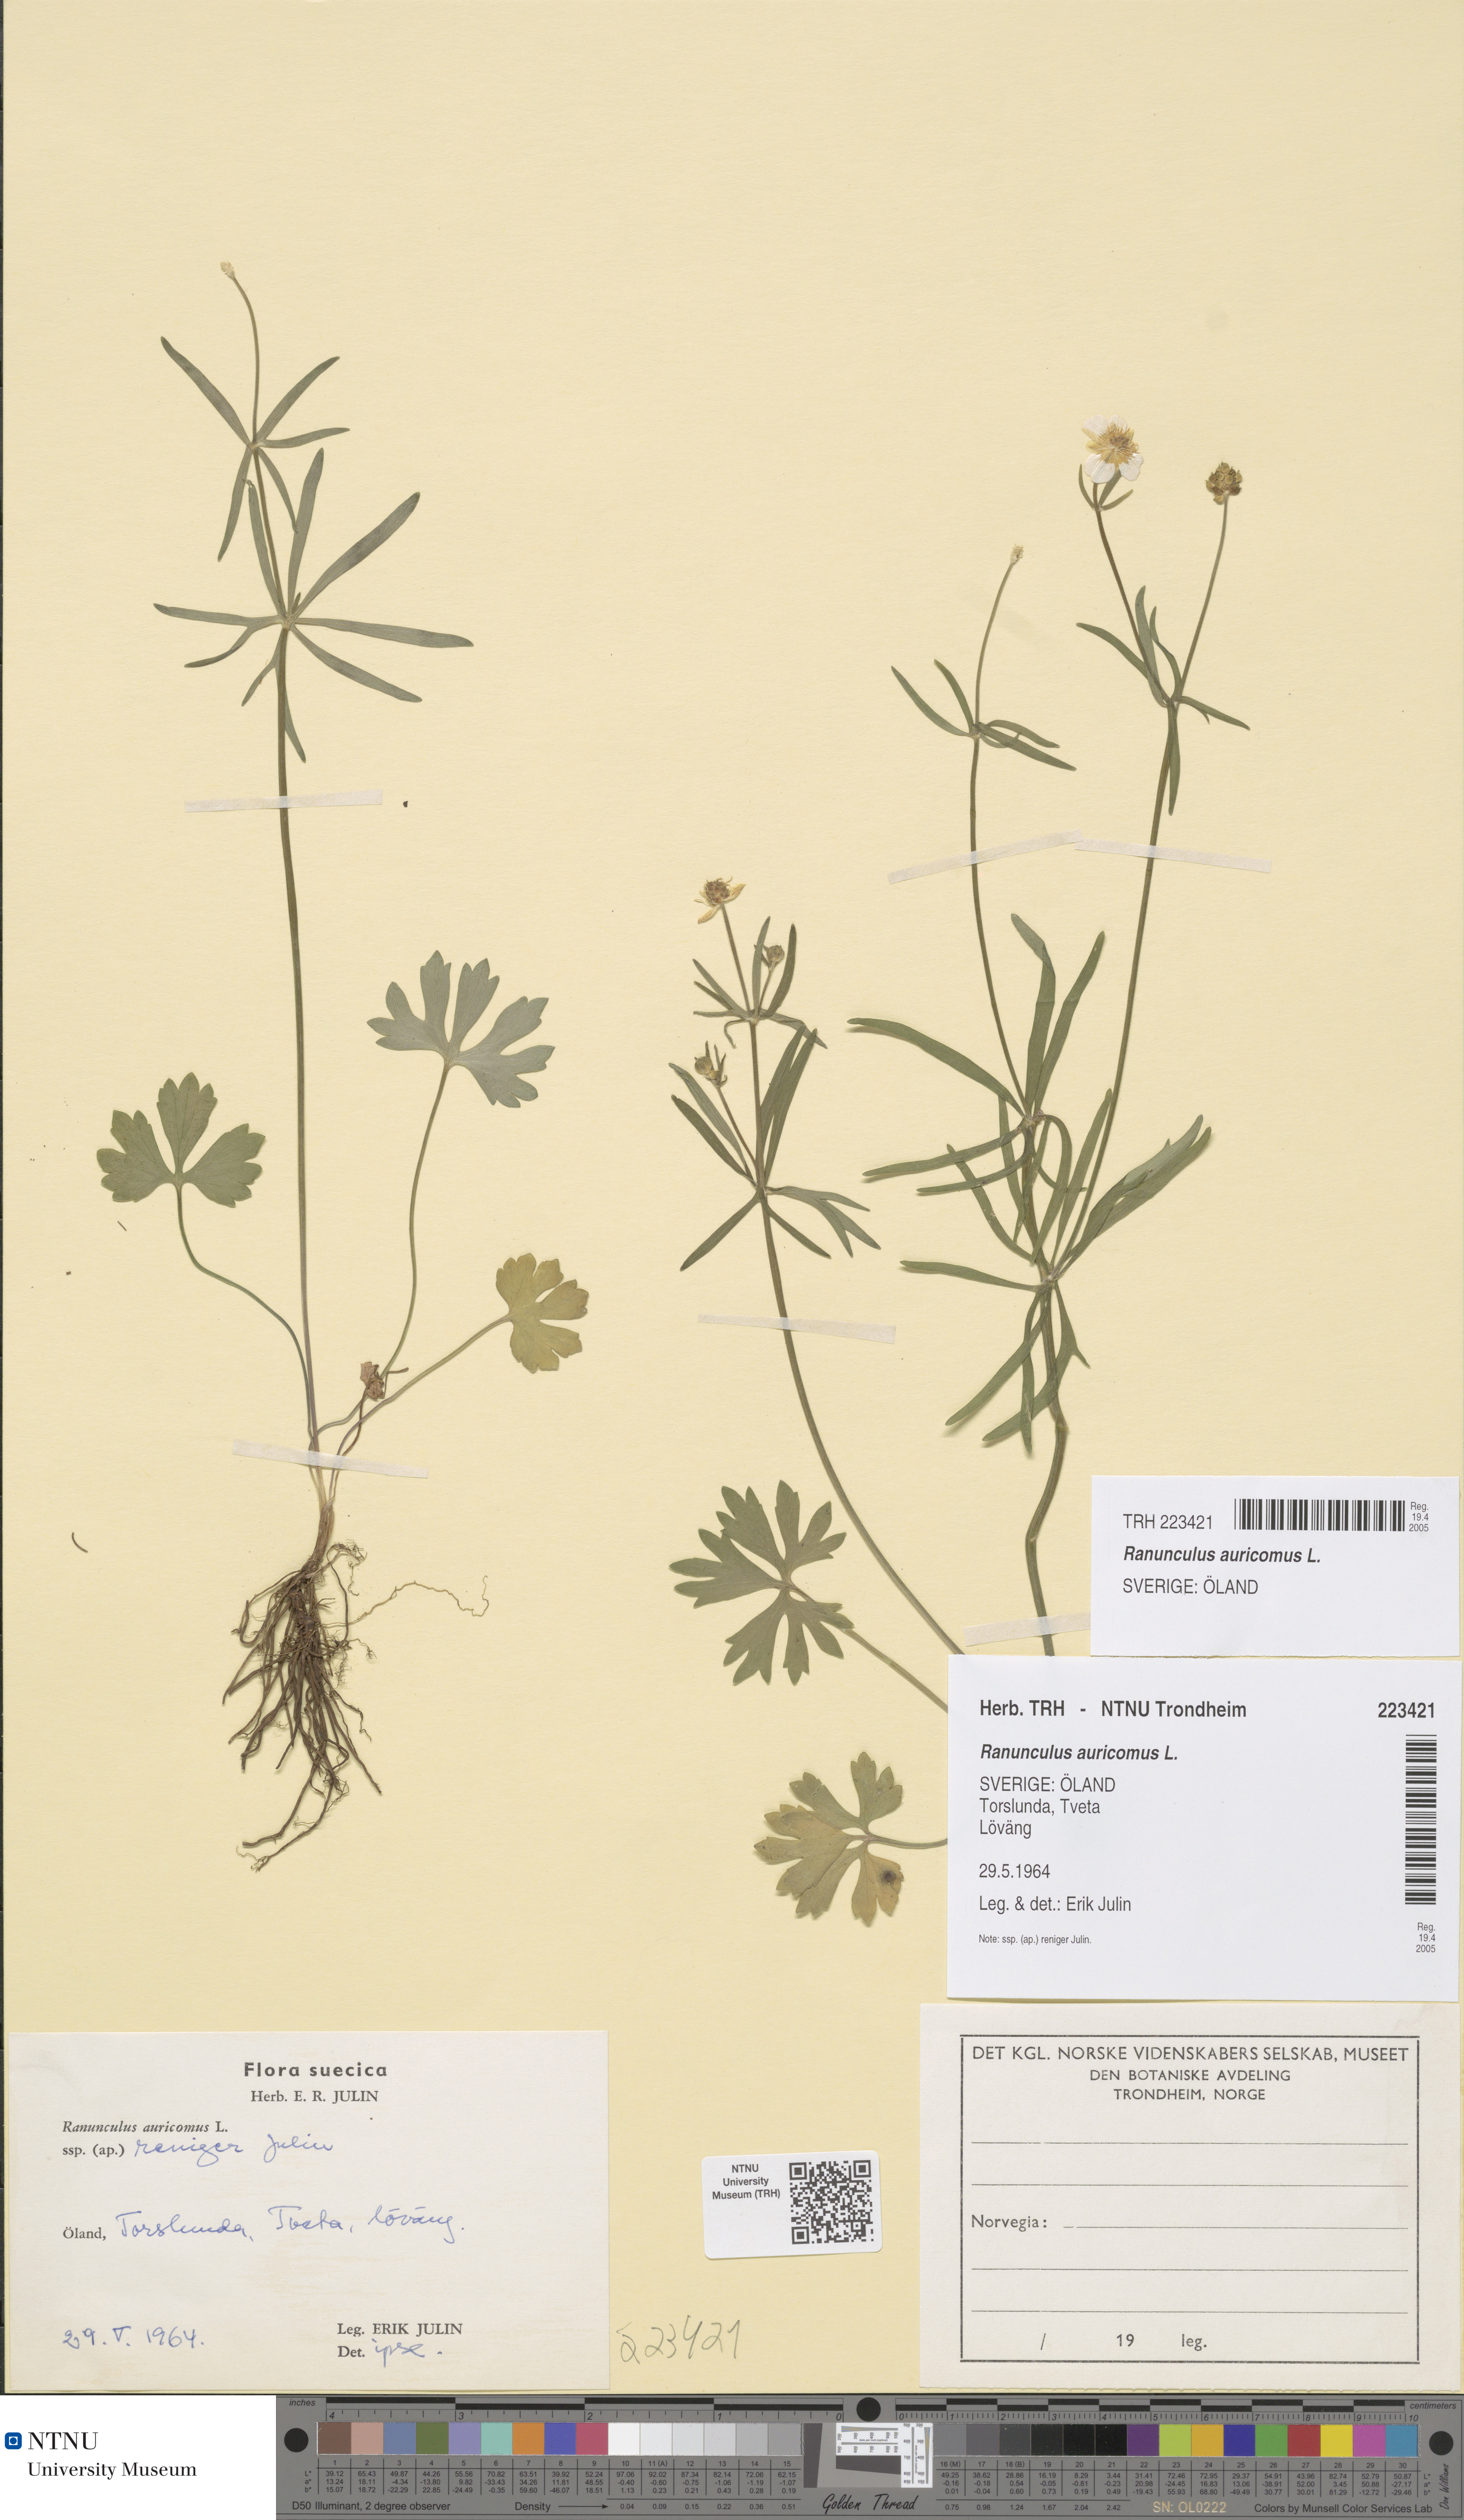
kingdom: Plantae
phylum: Tracheophyta
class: Magnoliopsida
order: Ranunculales
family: Ranunculaceae
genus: Ranunculus
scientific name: Ranunculus auricomus
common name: Goldilocks buttercup
